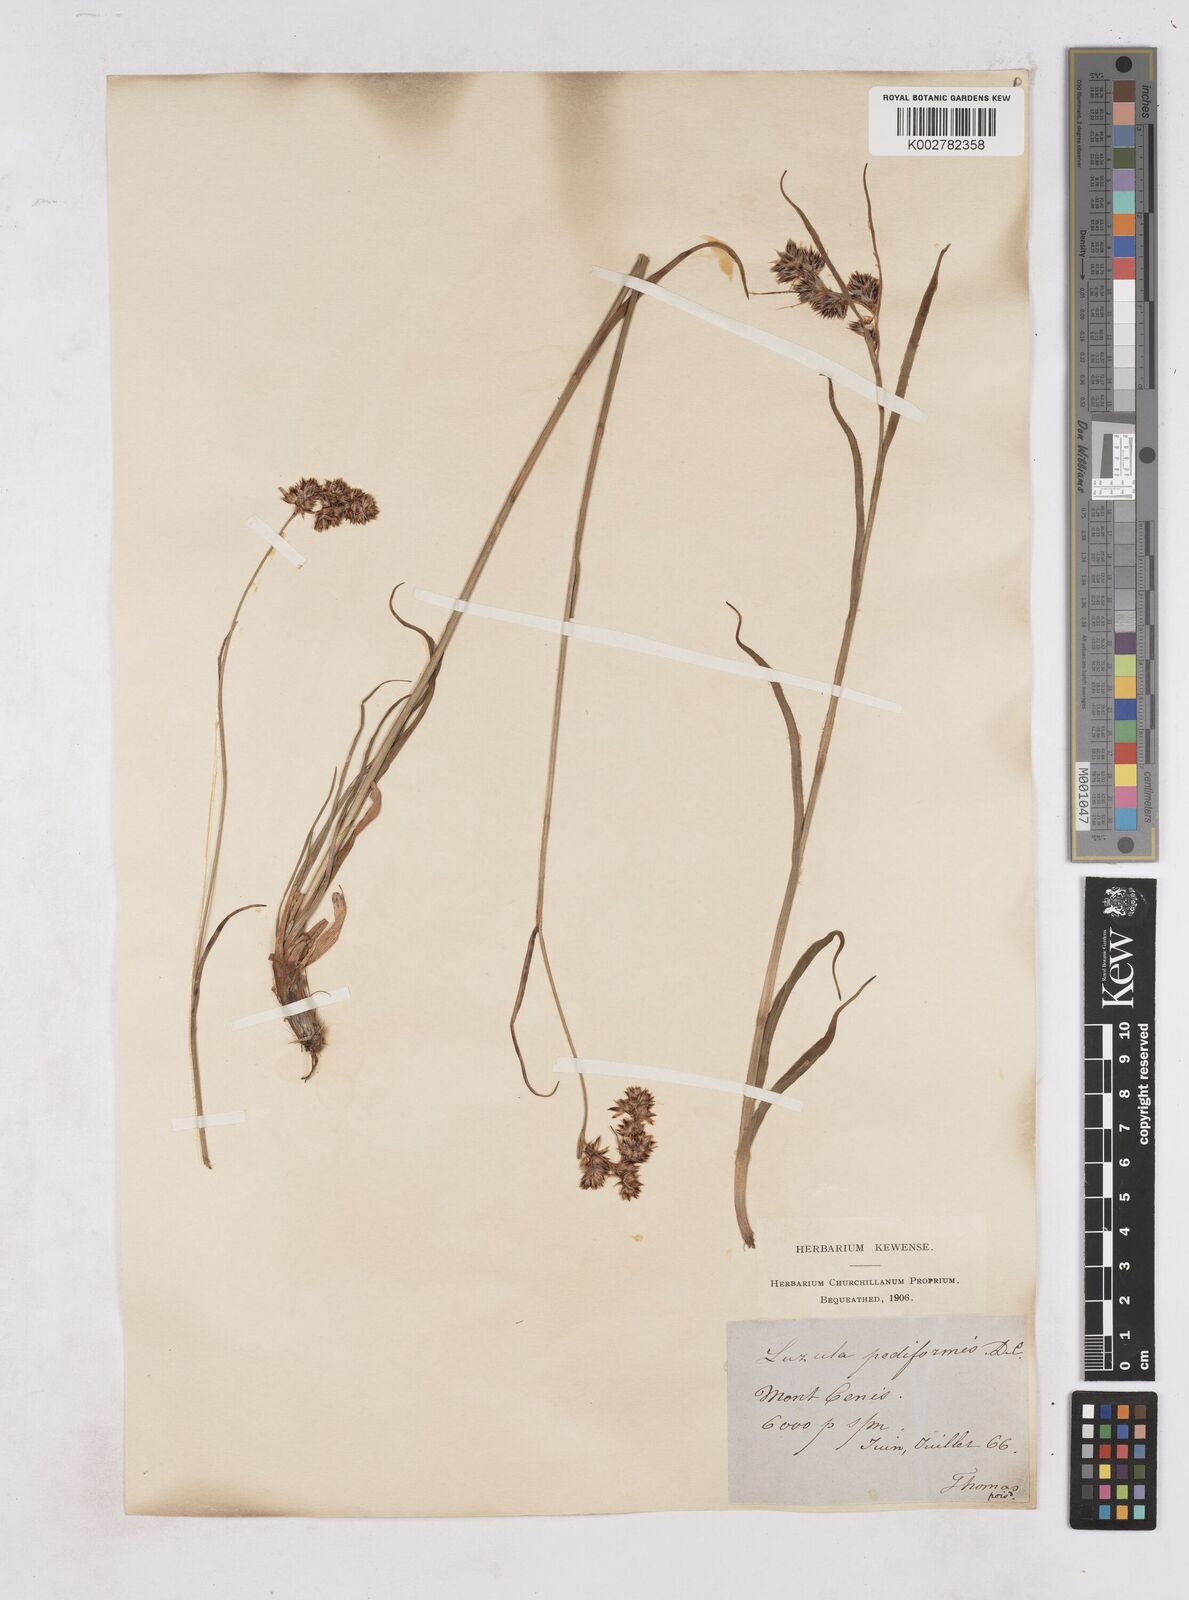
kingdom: Plantae
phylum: Tracheophyta
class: Liliopsida
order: Poales
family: Juncaceae
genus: Luzula
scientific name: Luzula pediformis
